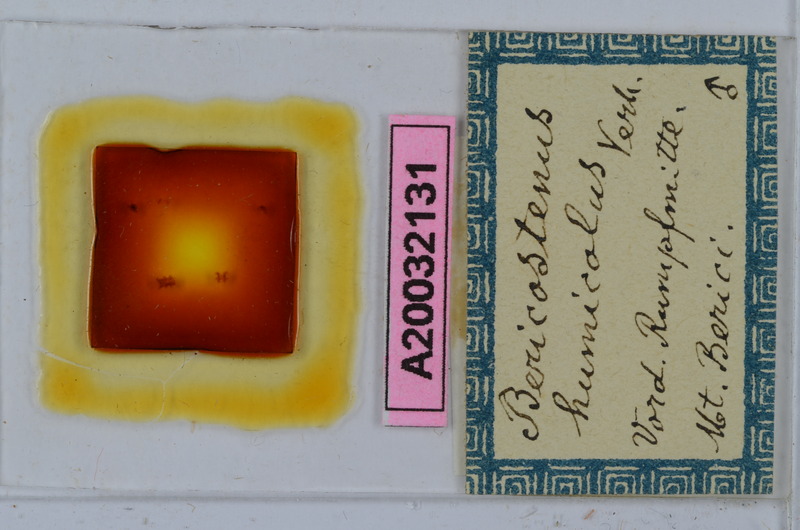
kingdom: Animalia
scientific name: Animalia
